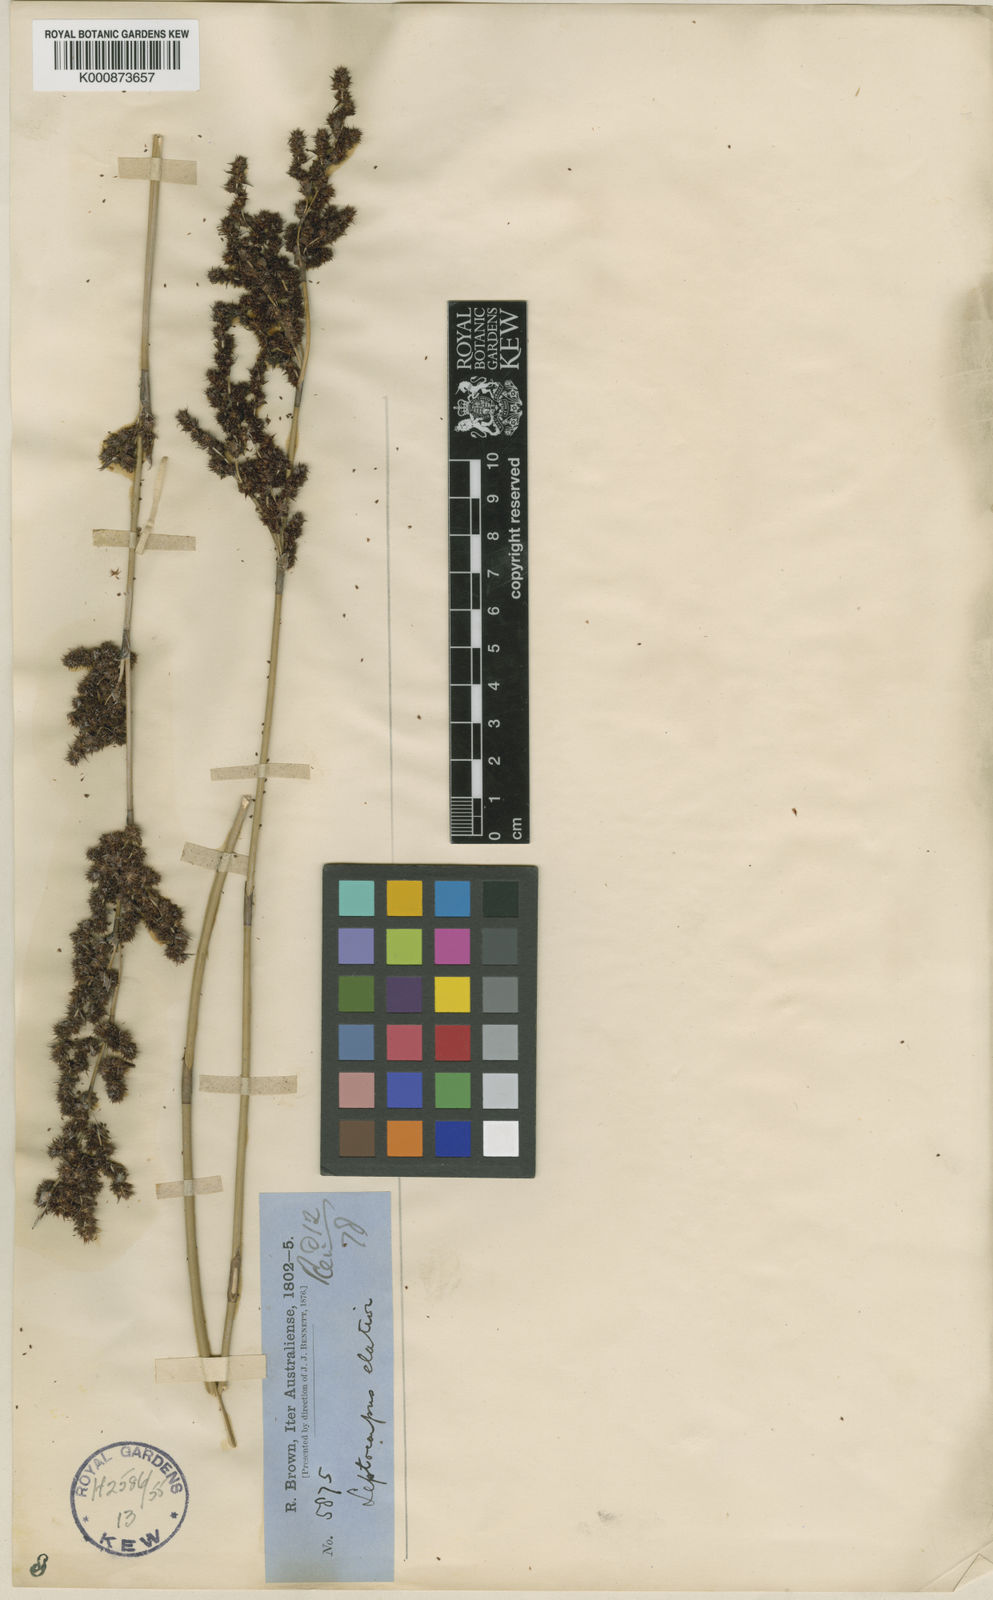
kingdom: Plantae
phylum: Tracheophyta
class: Liliopsida
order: Poales
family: Restionaceae
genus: Dapsilanthus
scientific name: Dapsilanthus elatior
